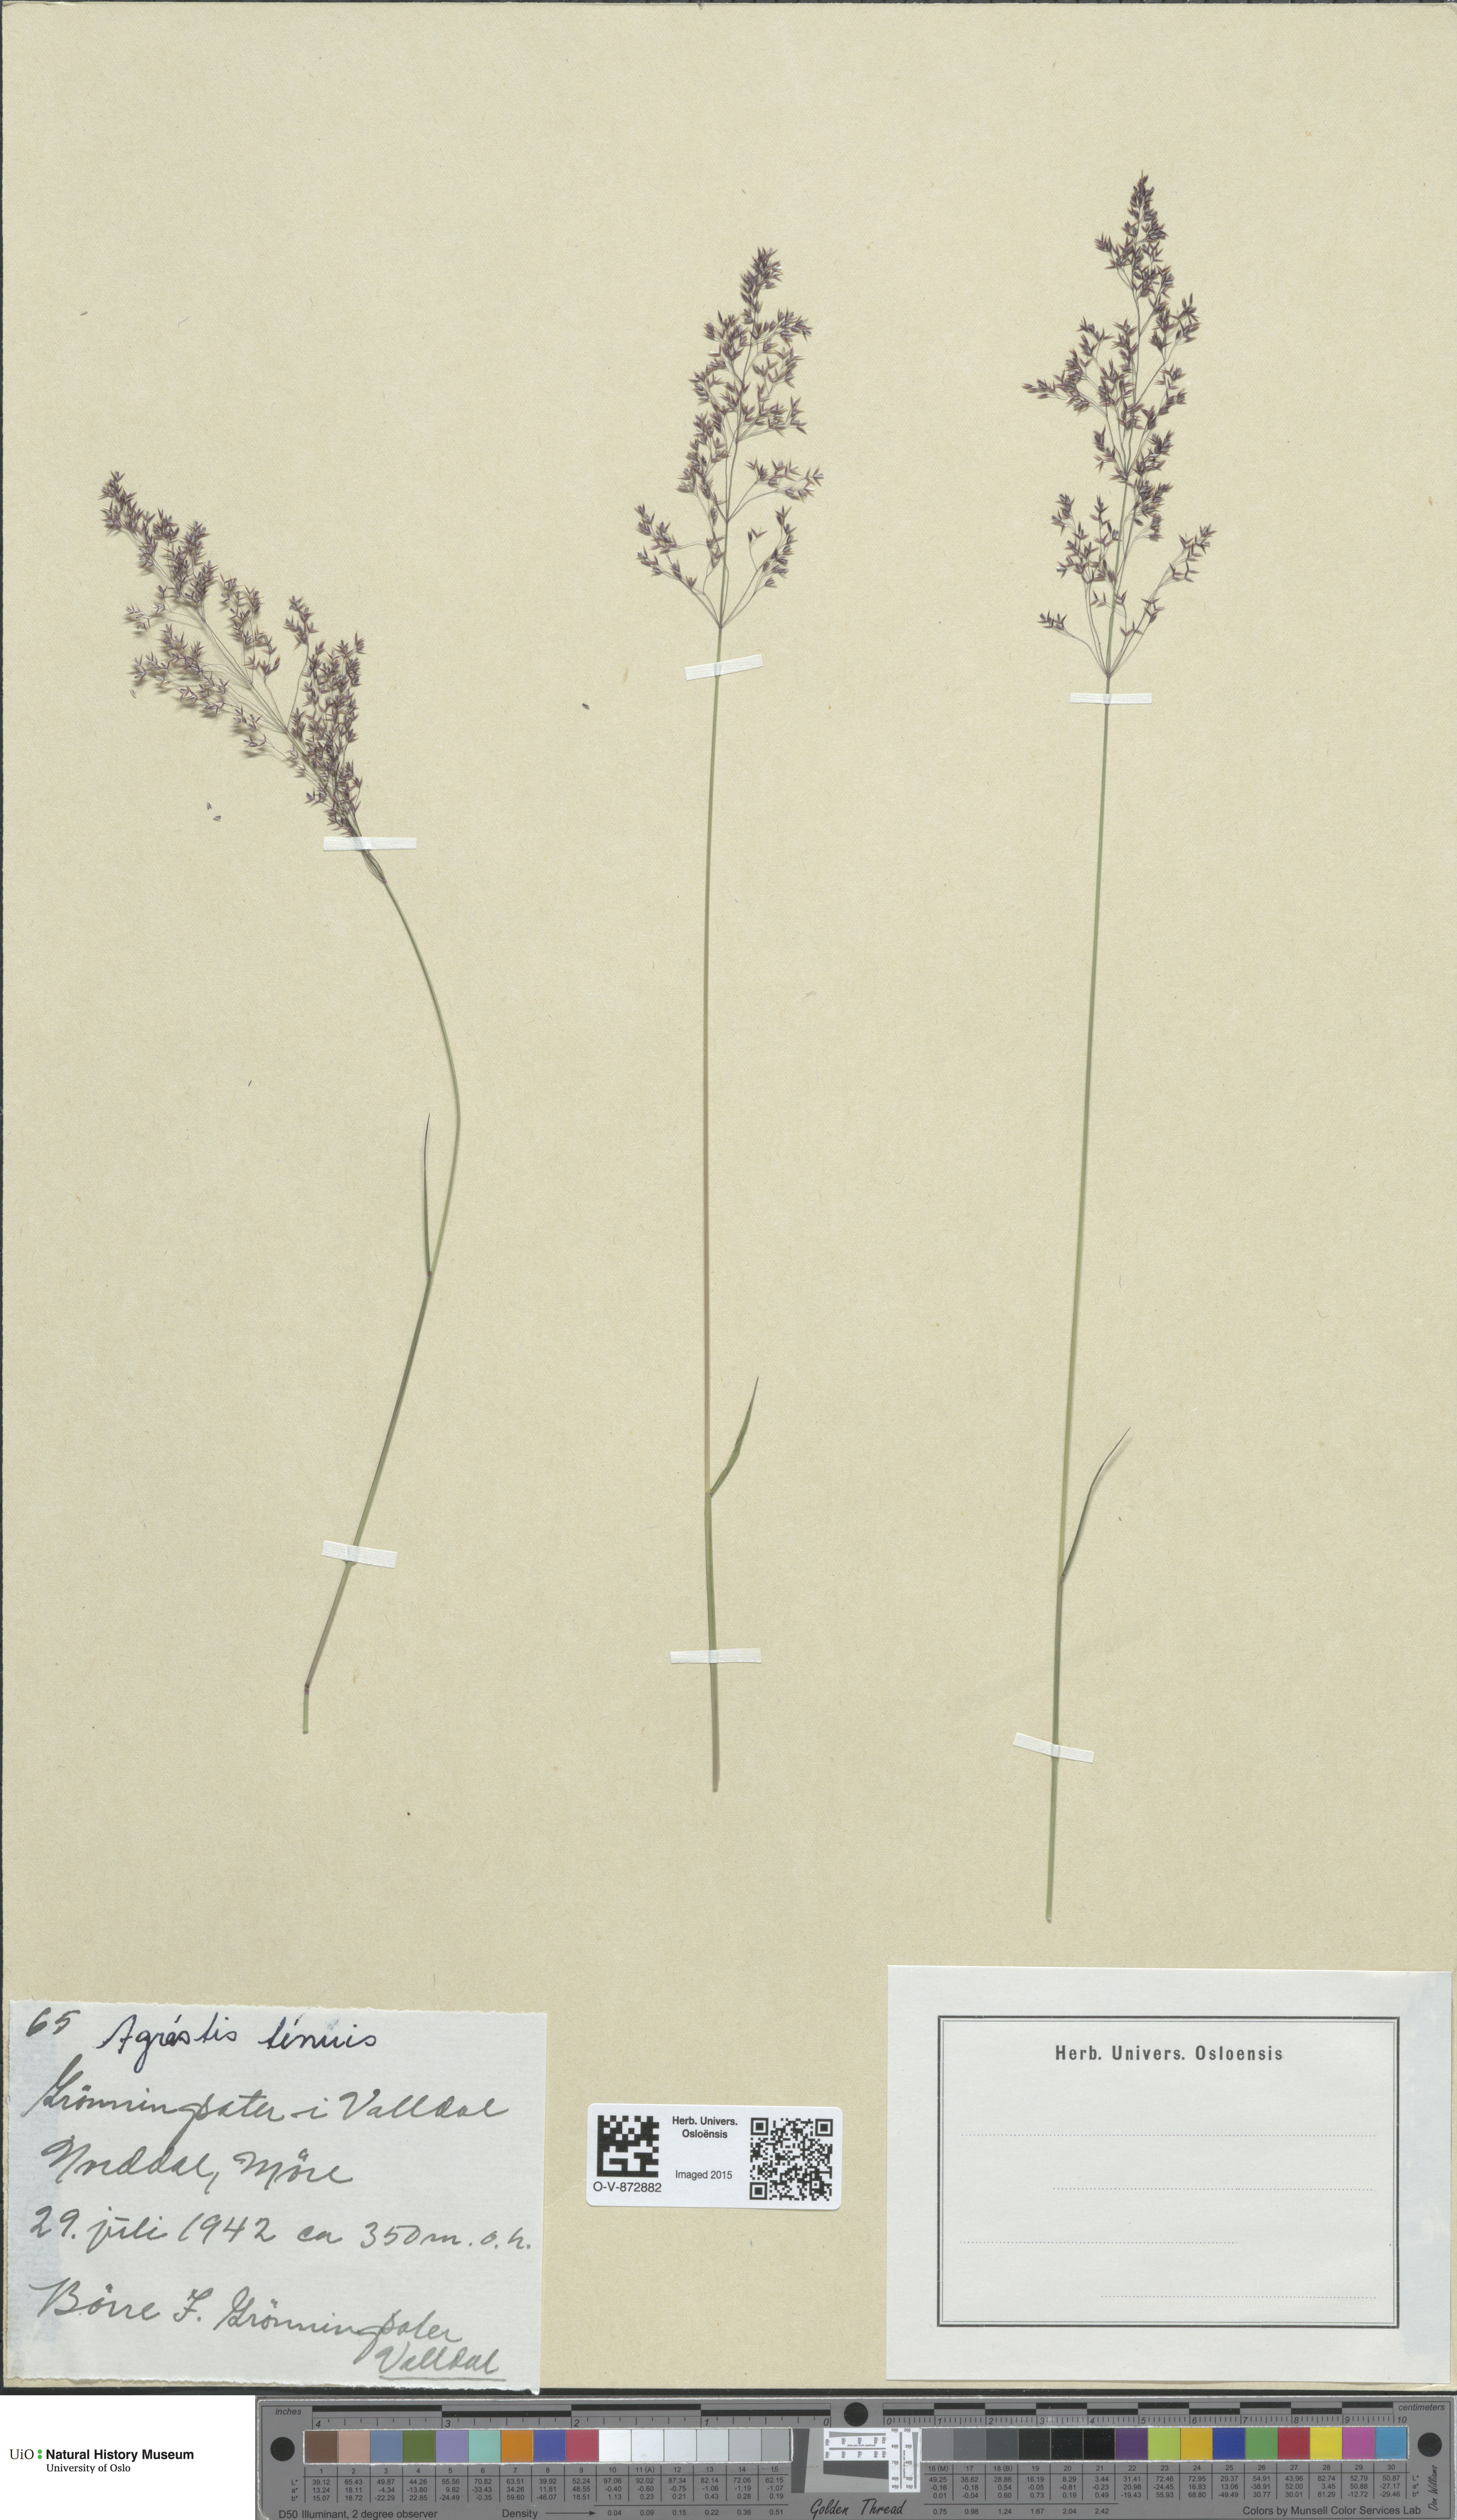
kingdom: Plantae
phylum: Tracheophyta
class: Liliopsida
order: Poales
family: Poaceae
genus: Agrostis
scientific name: Agrostis capillaris
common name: Colonial bentgrass
